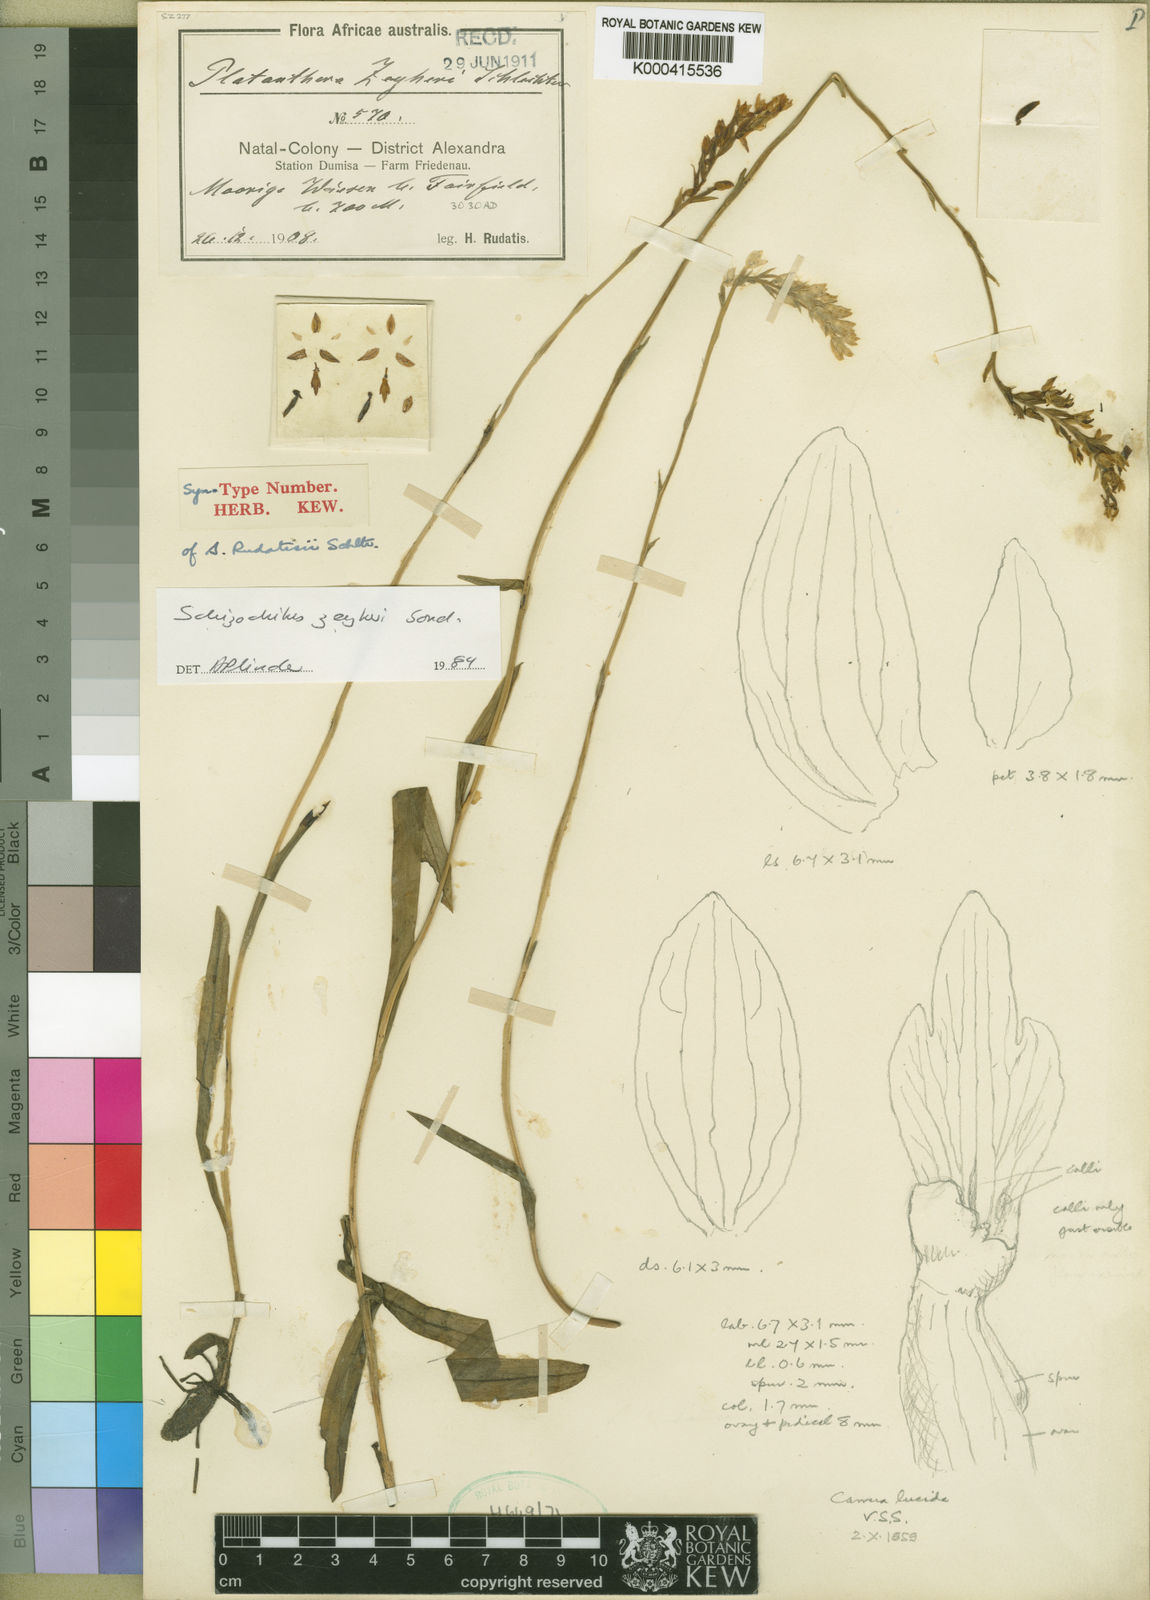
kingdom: Plantae
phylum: Tracheophyta
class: Liliopsida
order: Asparagales
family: Orchidaceae
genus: Schizochilus
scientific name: Schizochilus zeyheri
